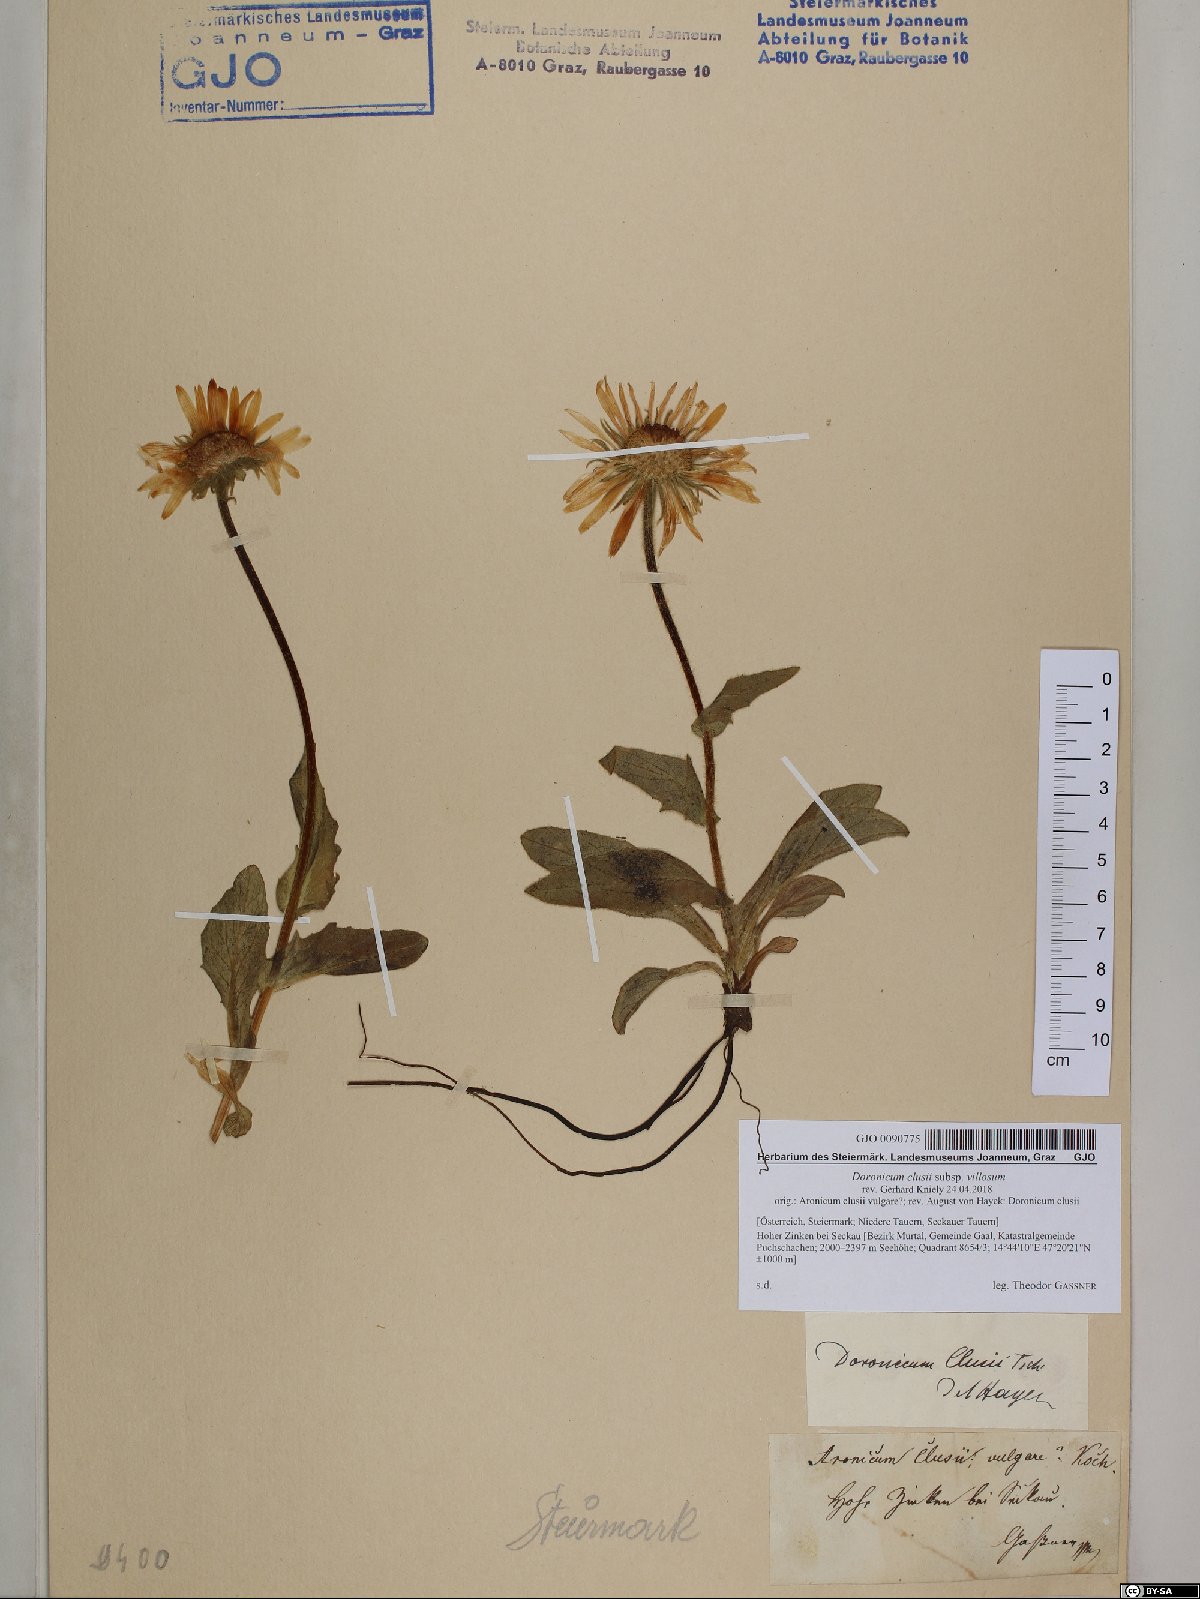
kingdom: Plantae
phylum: Tracheophyta
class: Magnoliopsida
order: Asterales
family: Asteraceae
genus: Doronicum
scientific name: Doronicum clusii
